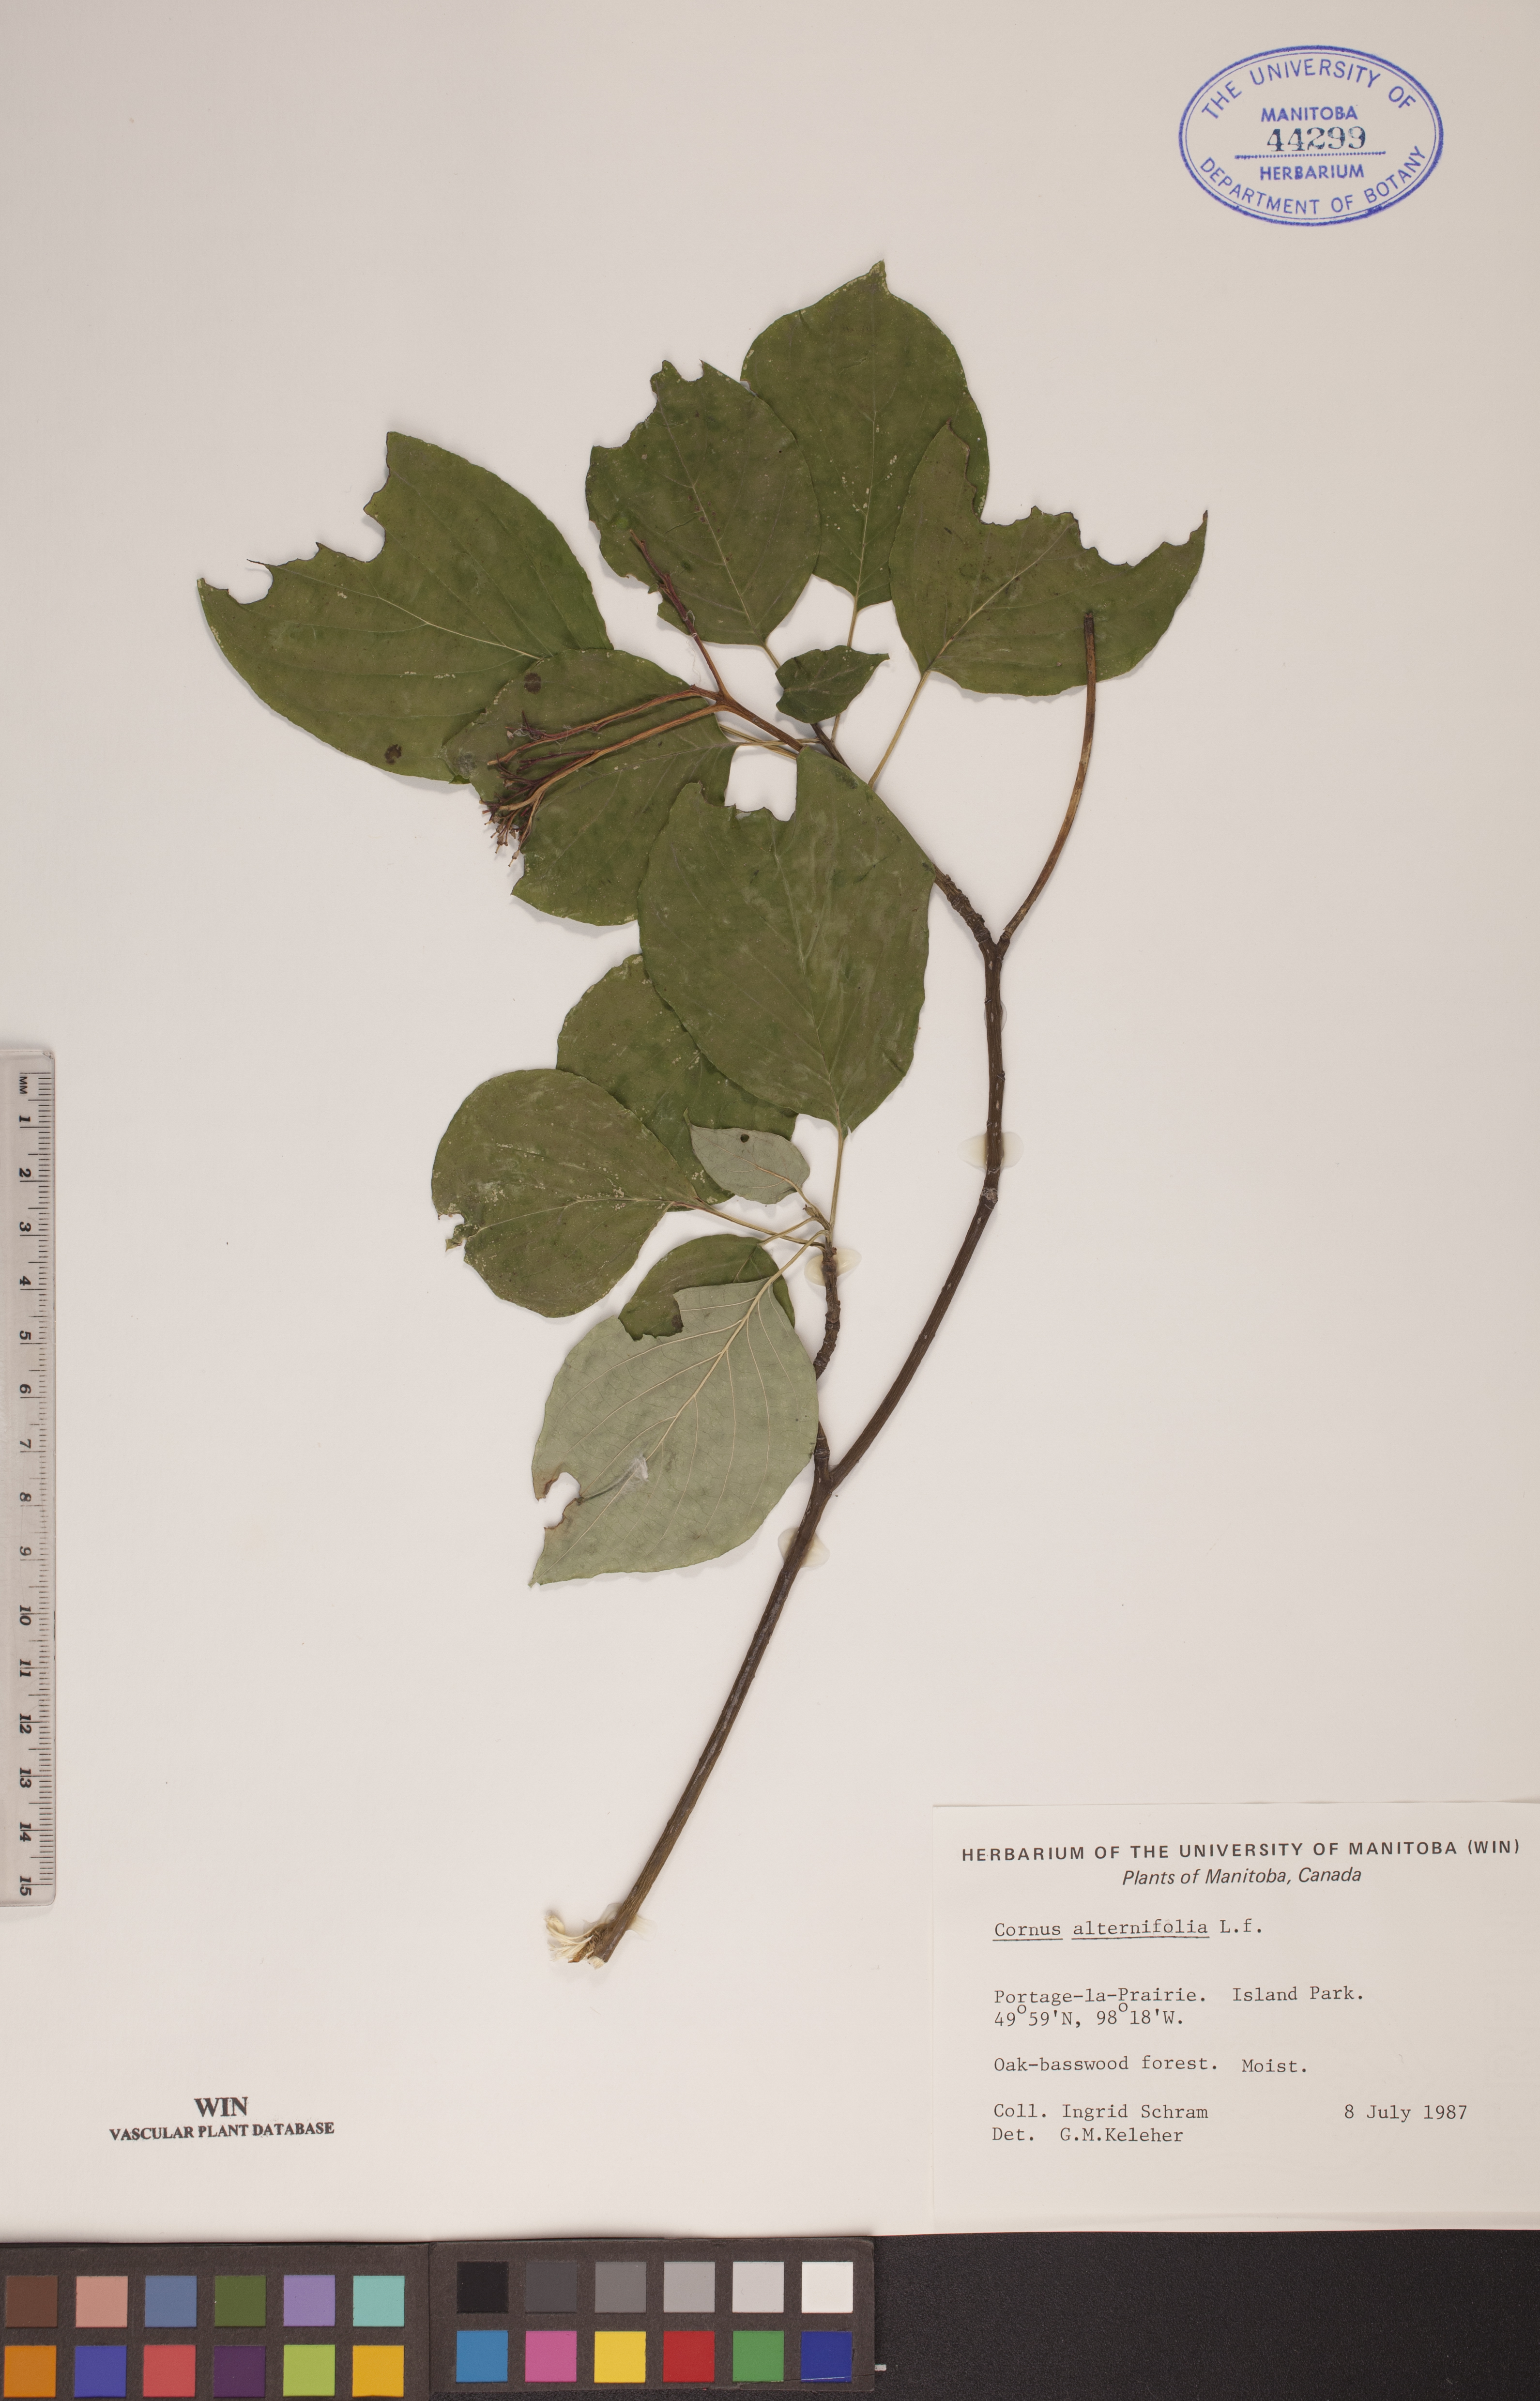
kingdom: Plantae
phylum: Tracheophyta
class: Magnoliopsida
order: Cornales
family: Cornaceae
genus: Cornus
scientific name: Cornus alternifolia
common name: Pagoda dogwood
